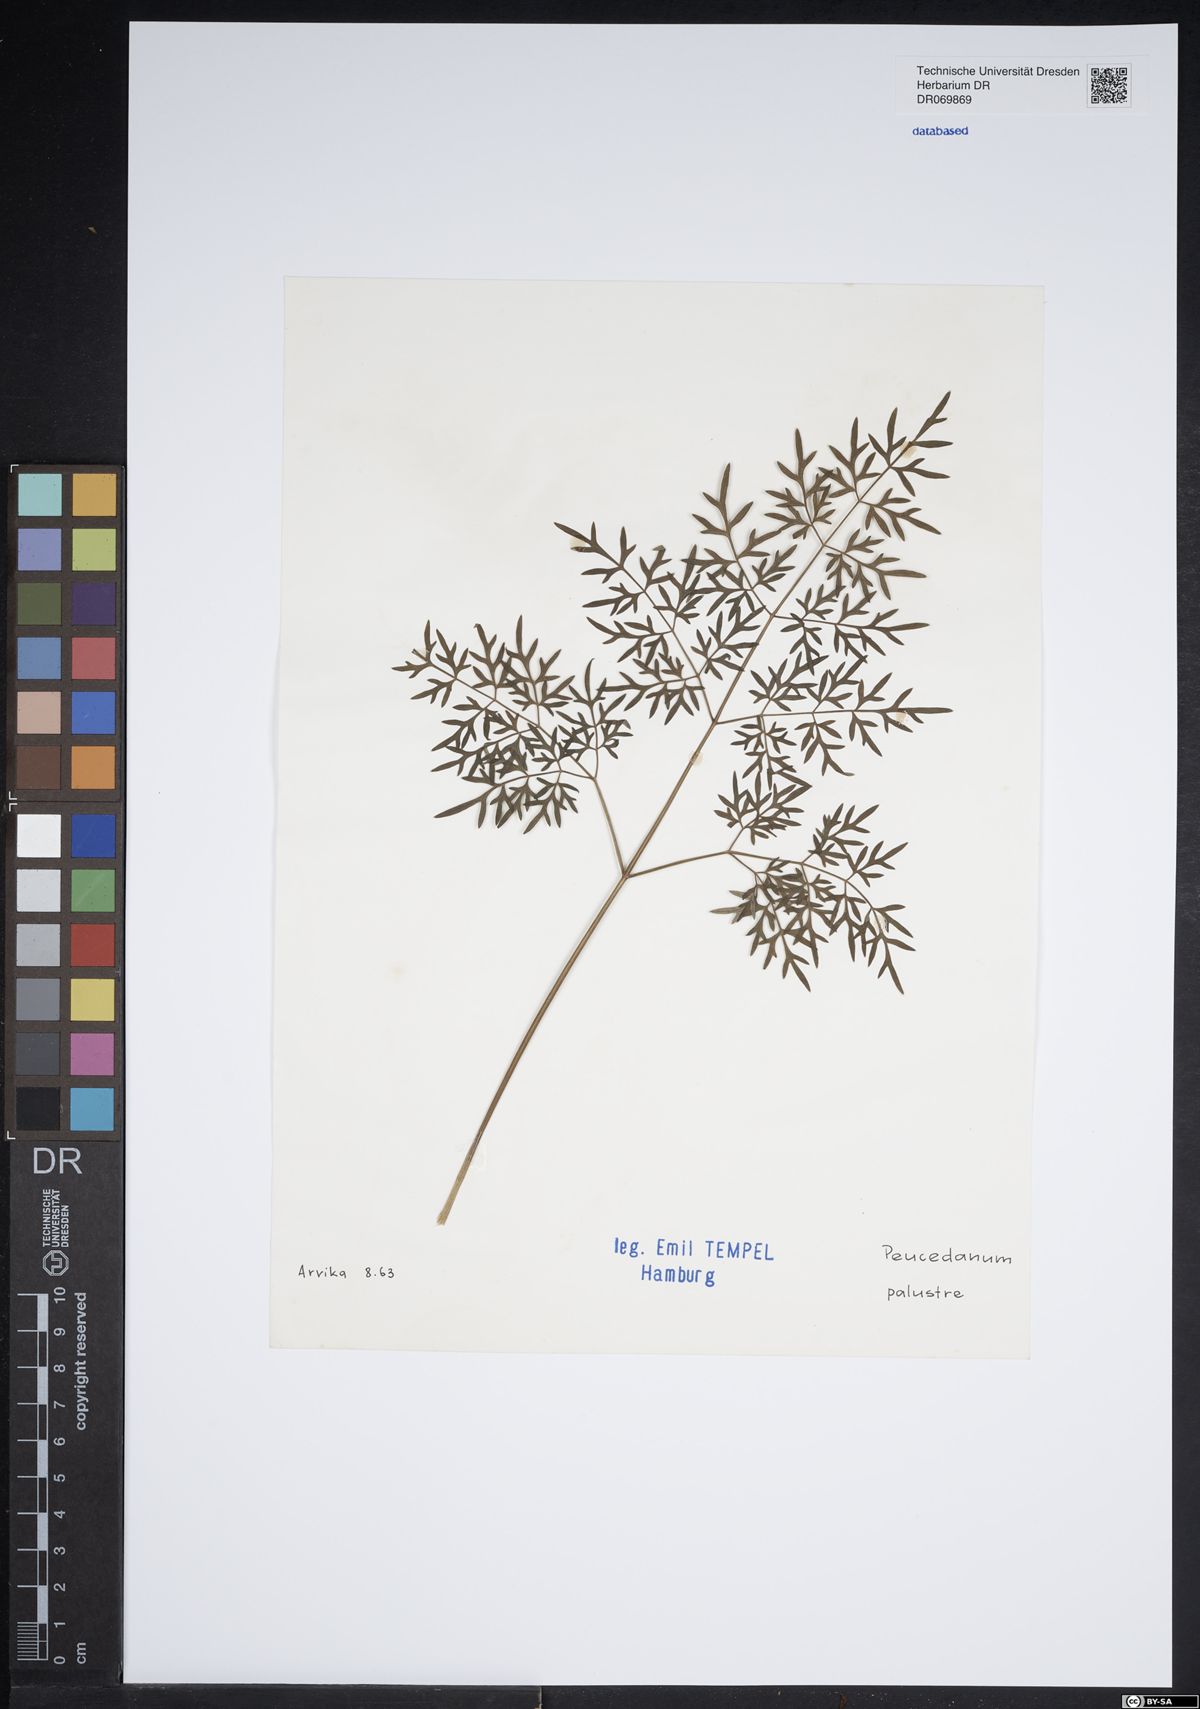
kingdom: Plantae
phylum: Tracheophyta
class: Magnoliopsida
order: Apiales
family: Apiaceae
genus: Thysselinum
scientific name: Thysselinum palustre
